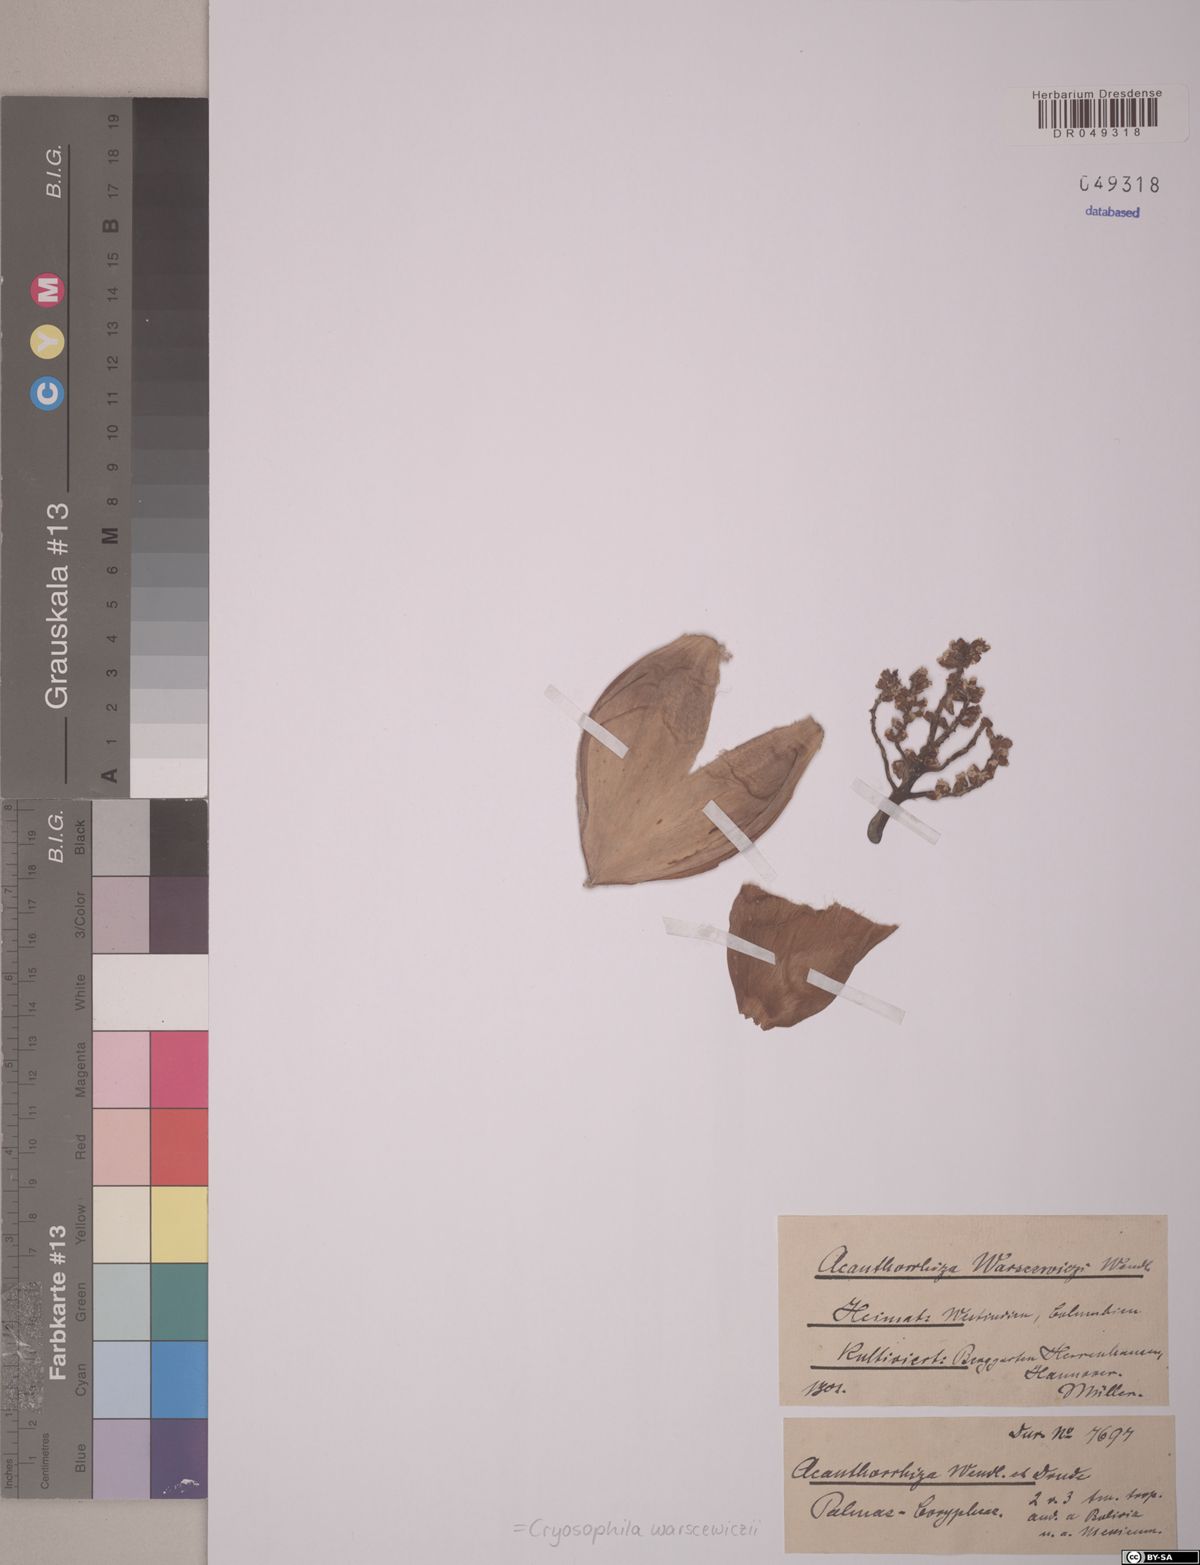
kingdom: Plantae
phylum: Tracheophyta
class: Liliopsida
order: Arecales
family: Arecaceae
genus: Cryosophila
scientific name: Cryosophila warscewiczii
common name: Root-spine palm
